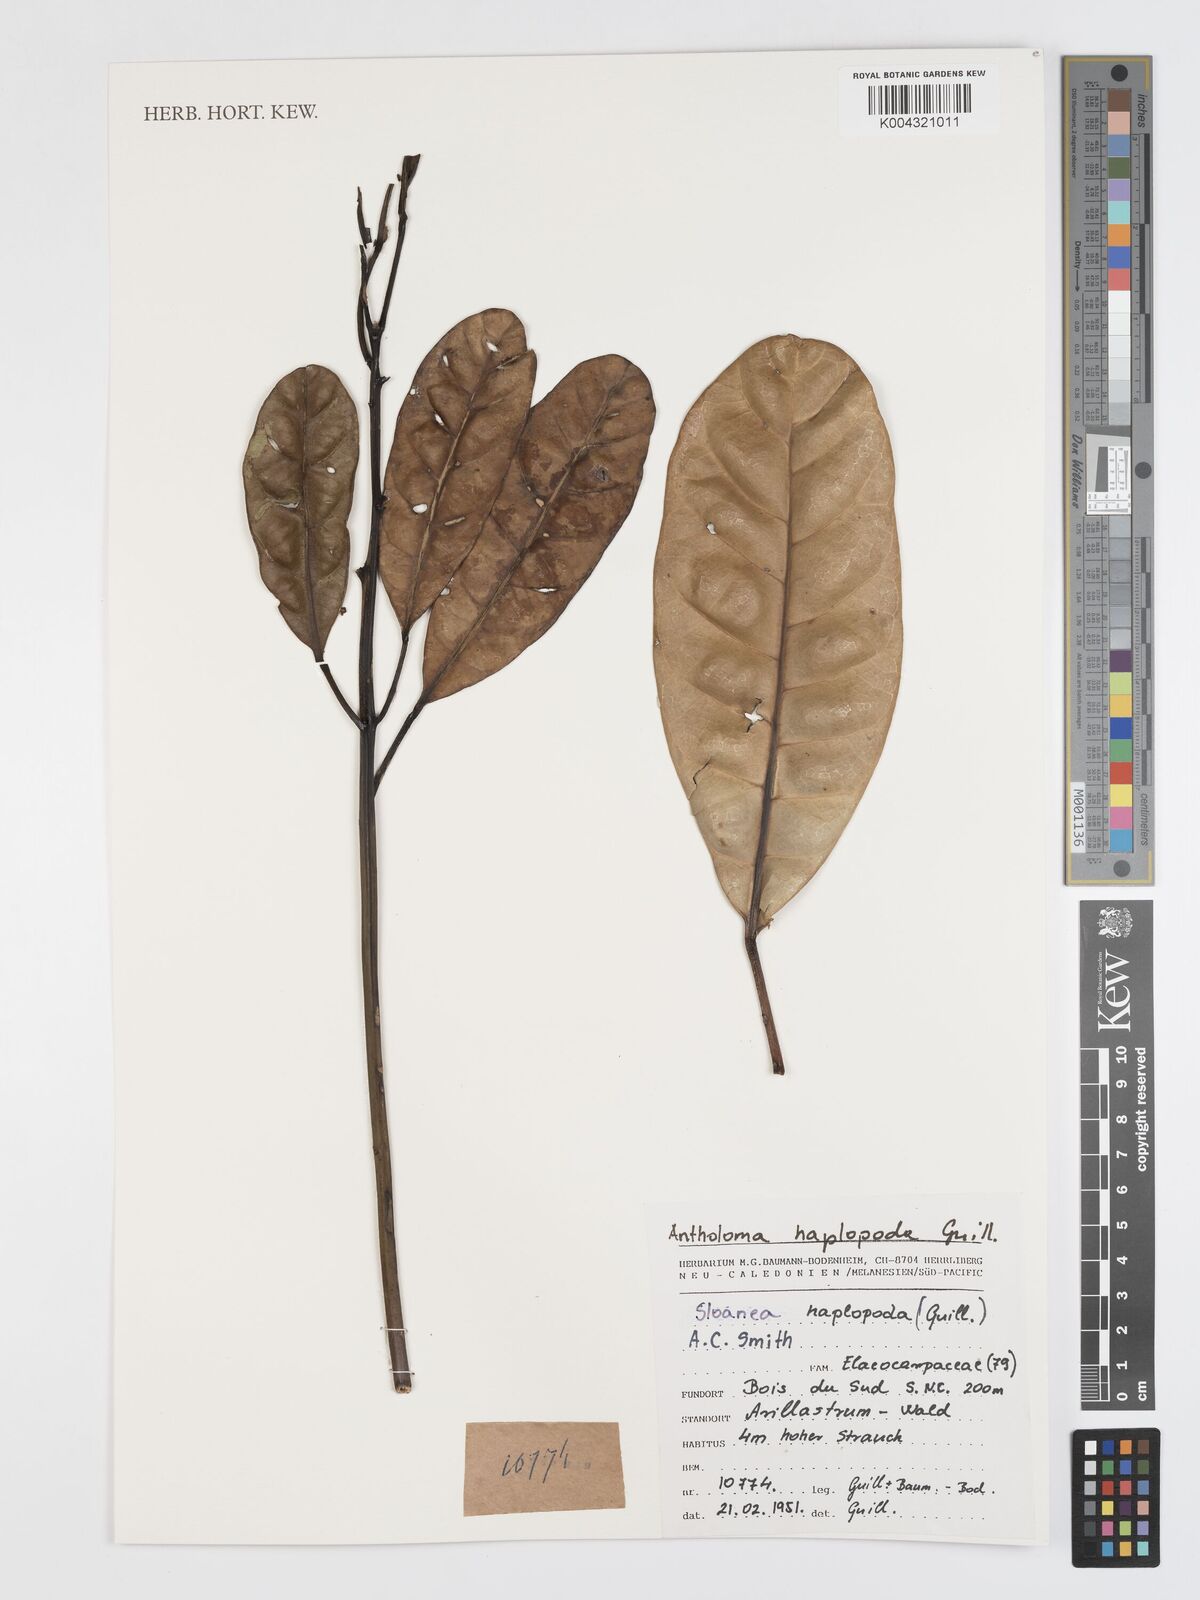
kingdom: Plantae
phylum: Tracheophyta
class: Magnoliopsida
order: Oxalidales
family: Elaeocarpaceae
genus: Sloanea
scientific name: Sloanea haplopoda
